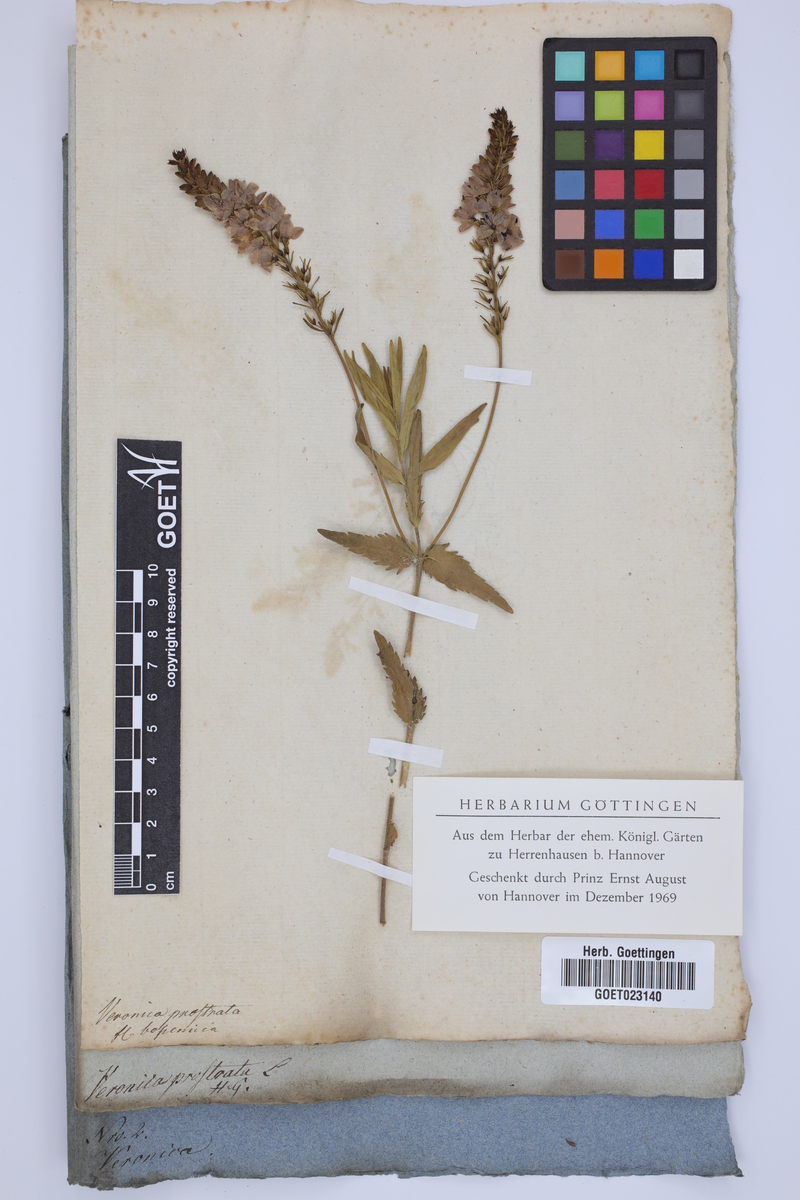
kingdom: Plantae
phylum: Tracheophyta
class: Magnoliopsida
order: Lamiales
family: Plantaginaceae
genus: Veronica
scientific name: Veronica prostrata
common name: Prostrate speedwell
